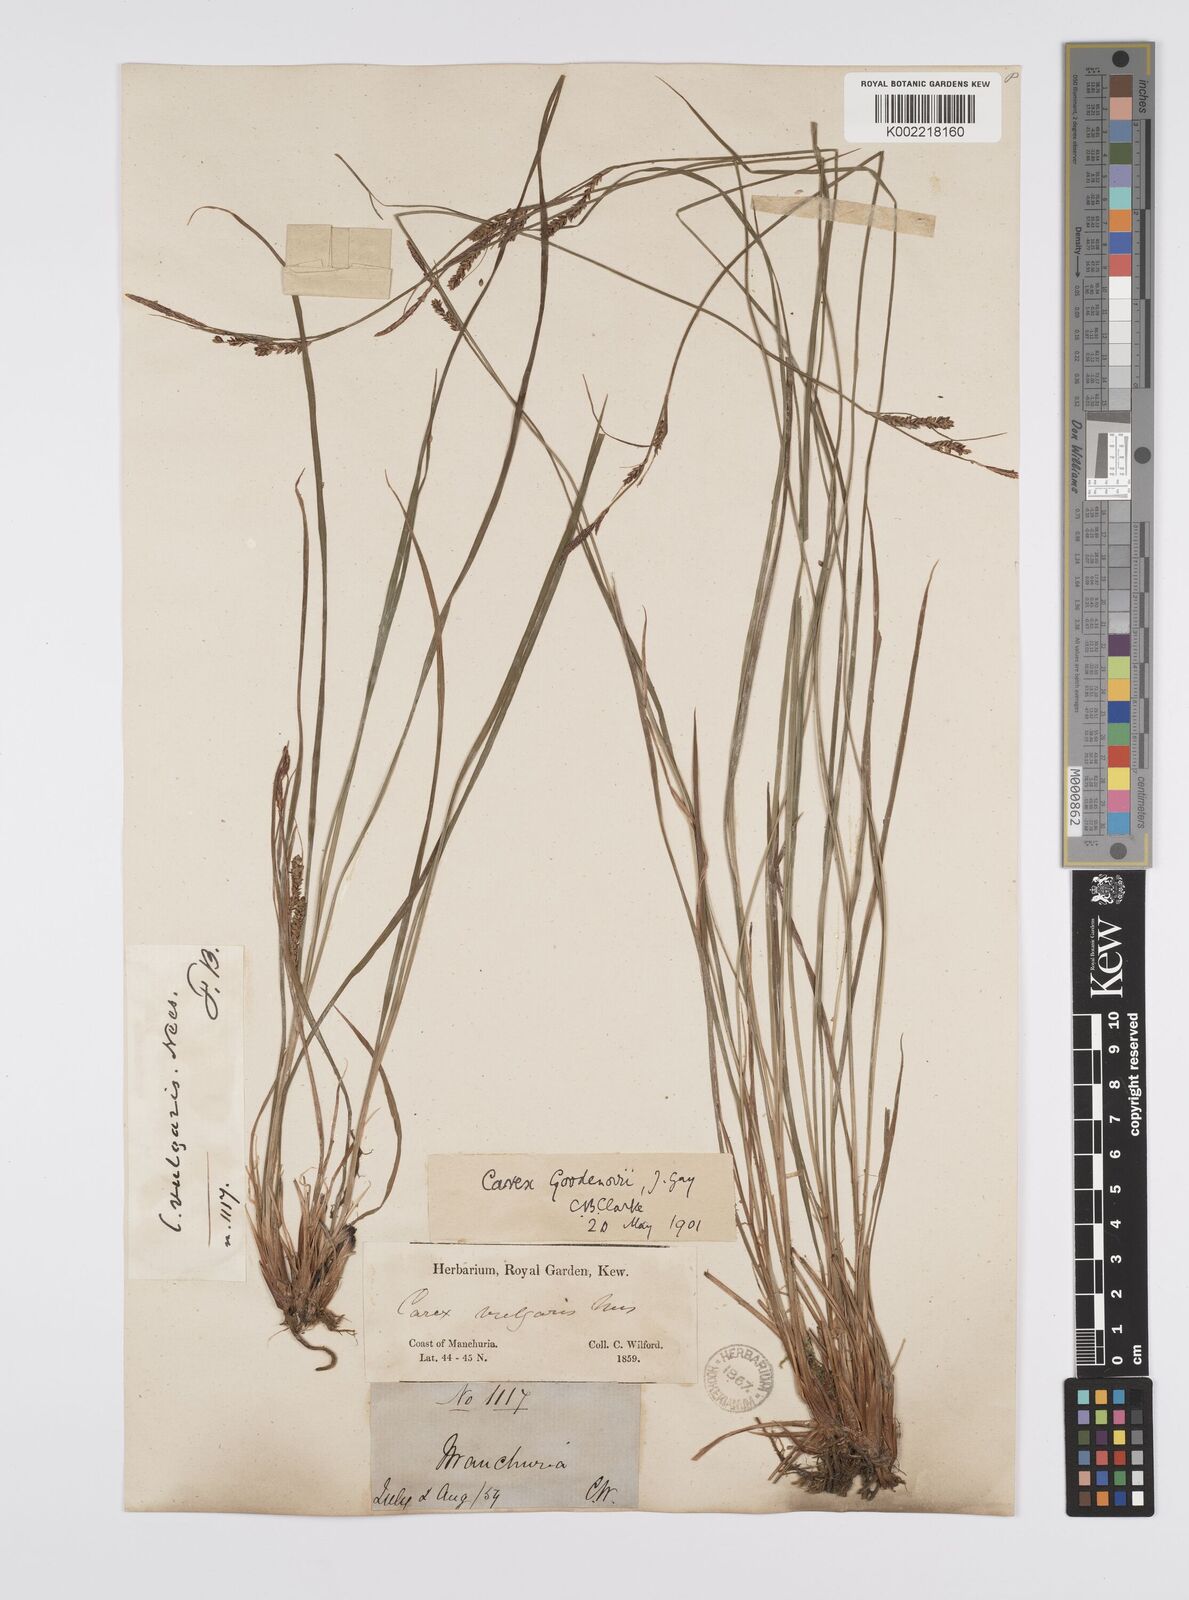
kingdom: Plantae
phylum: Tracheophyta
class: Liliopsida
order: Poales
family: Cyperaceae
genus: Carex
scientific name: Carex nigra
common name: Common sedge
